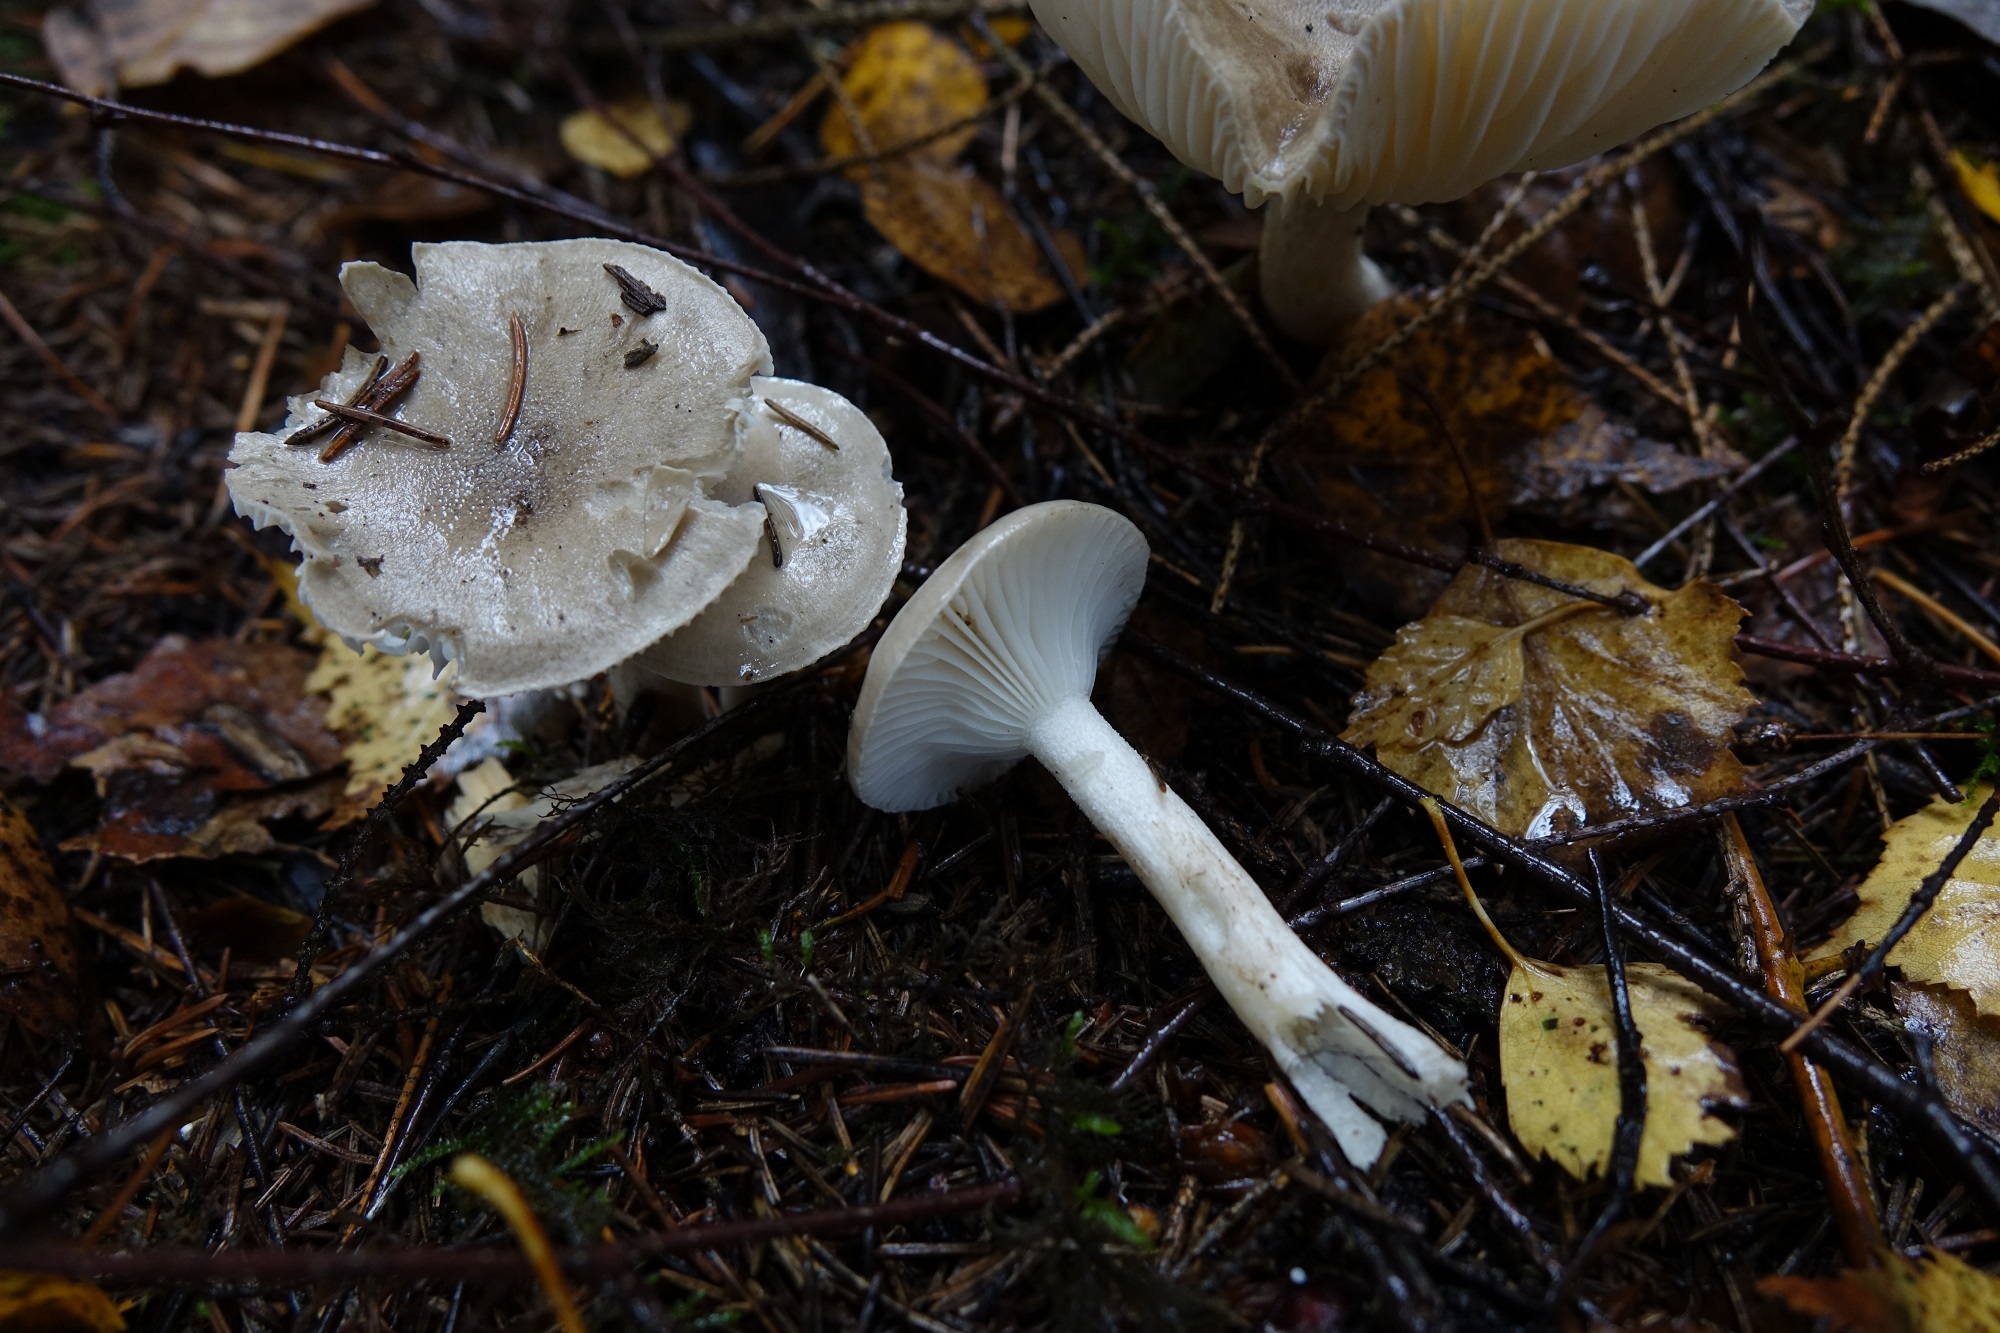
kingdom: Fungi
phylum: Basidiomycota
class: Agaricomycetes
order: Agaricales
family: Hygrophoraceae
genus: Hygrophorus
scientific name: Hygrophorus agathosmus
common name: Almond woodwax
